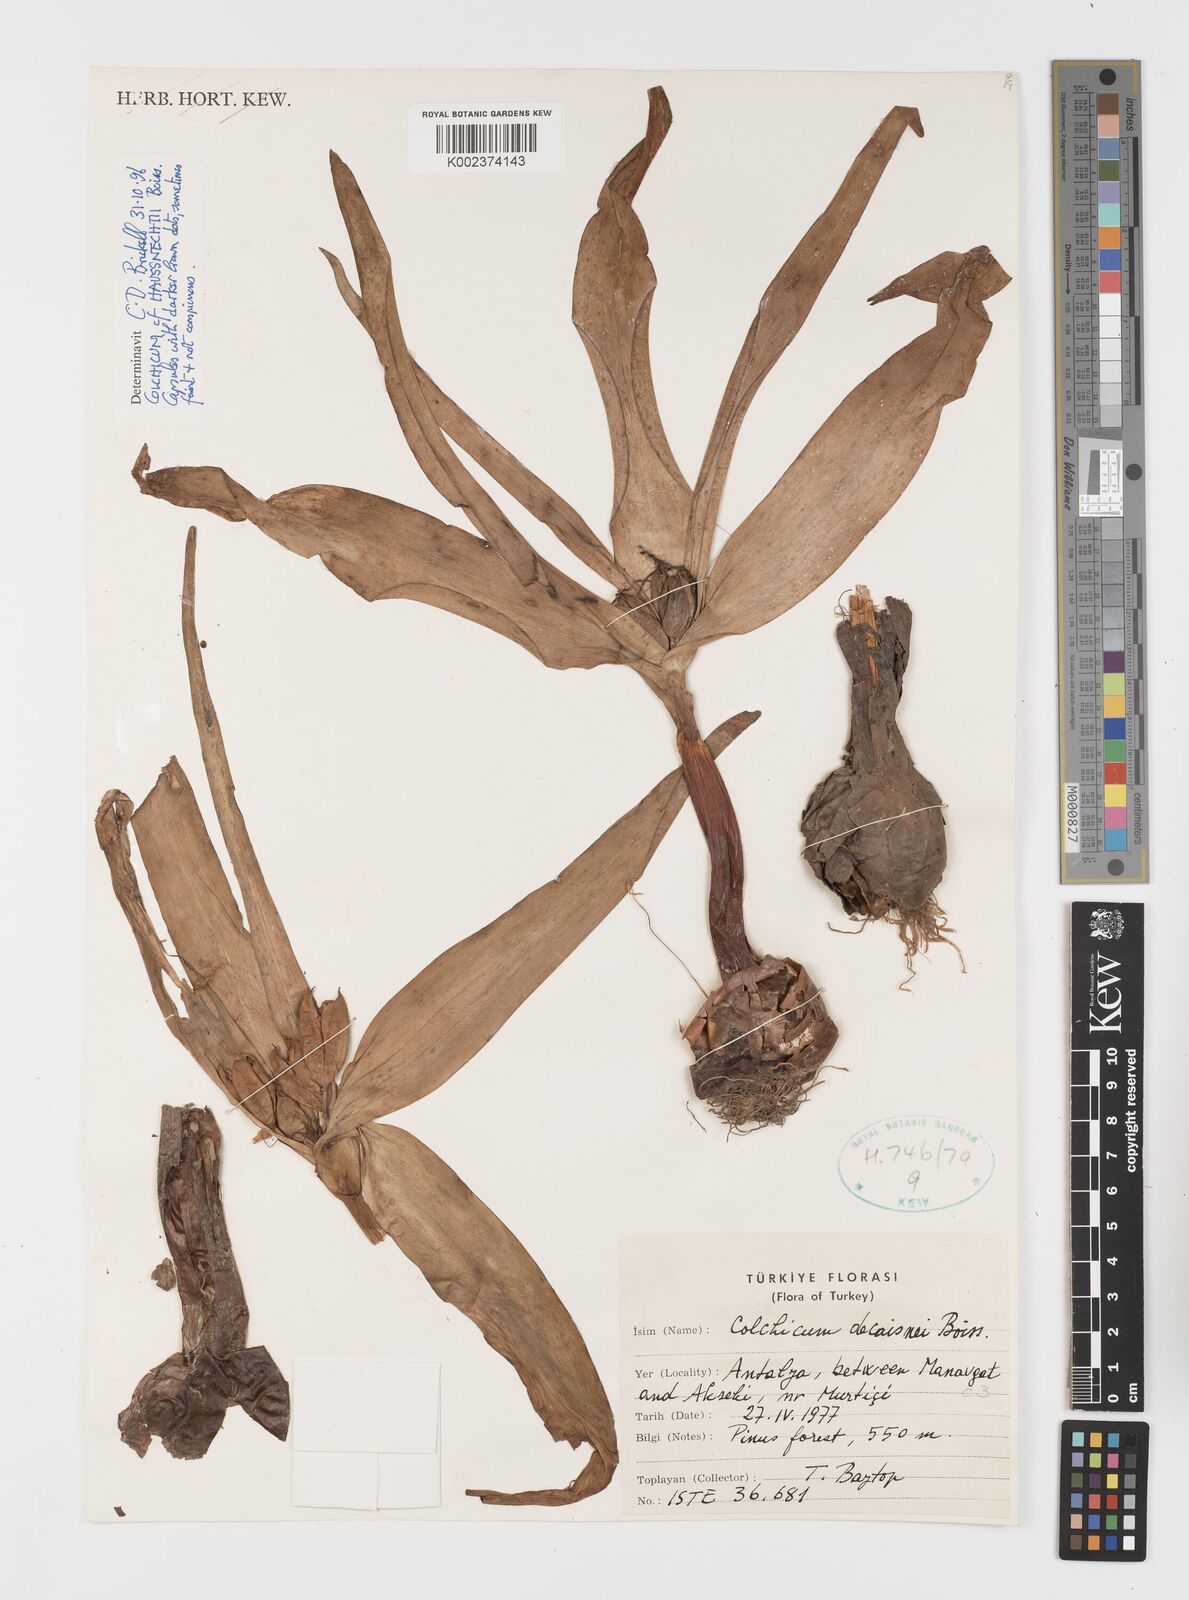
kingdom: Plantae
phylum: Tracheophyta
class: Liliopsida
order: Liliales
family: Colchicaceae
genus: Colchicum
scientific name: Colchicum persicum
